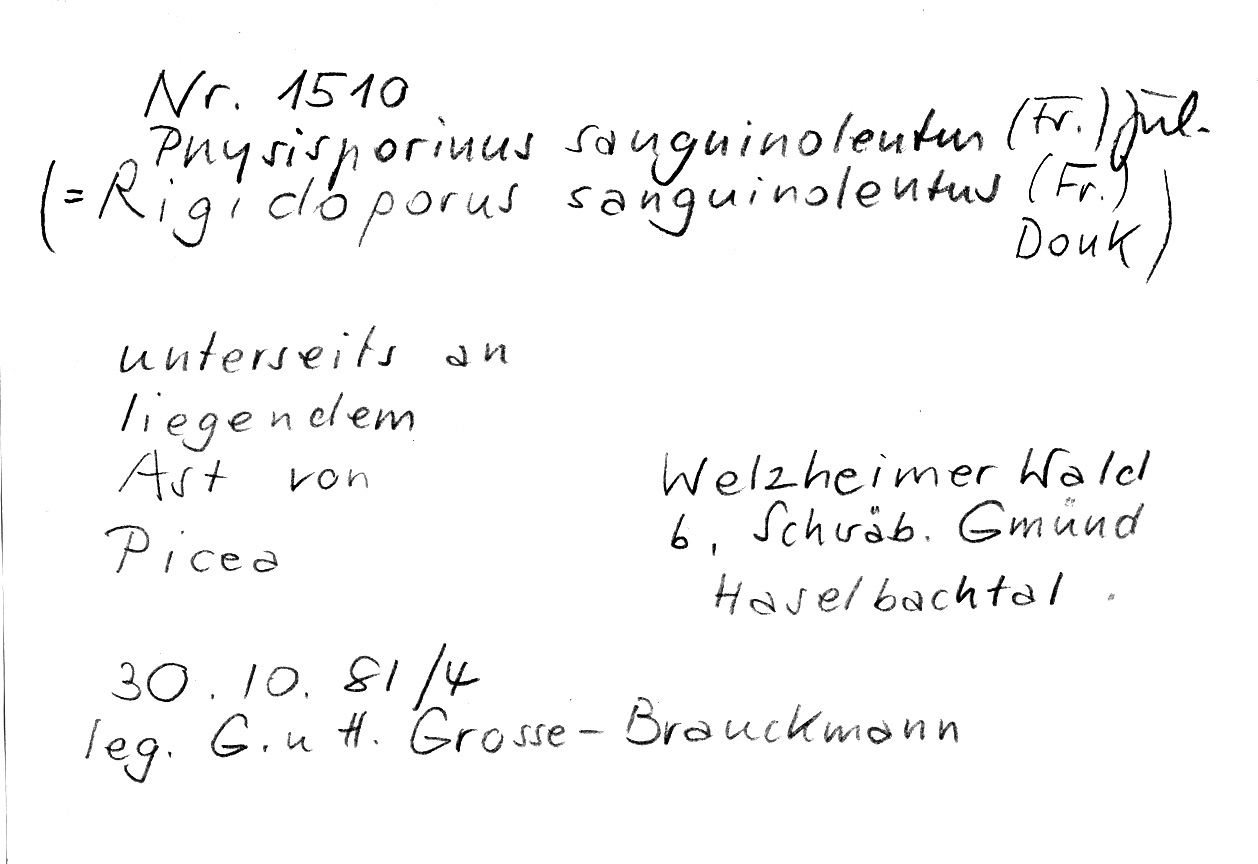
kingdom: Plantae
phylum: Tracheophyta
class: Pinopsida
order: Pinales
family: Pinaceae
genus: Picea
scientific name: Picea
